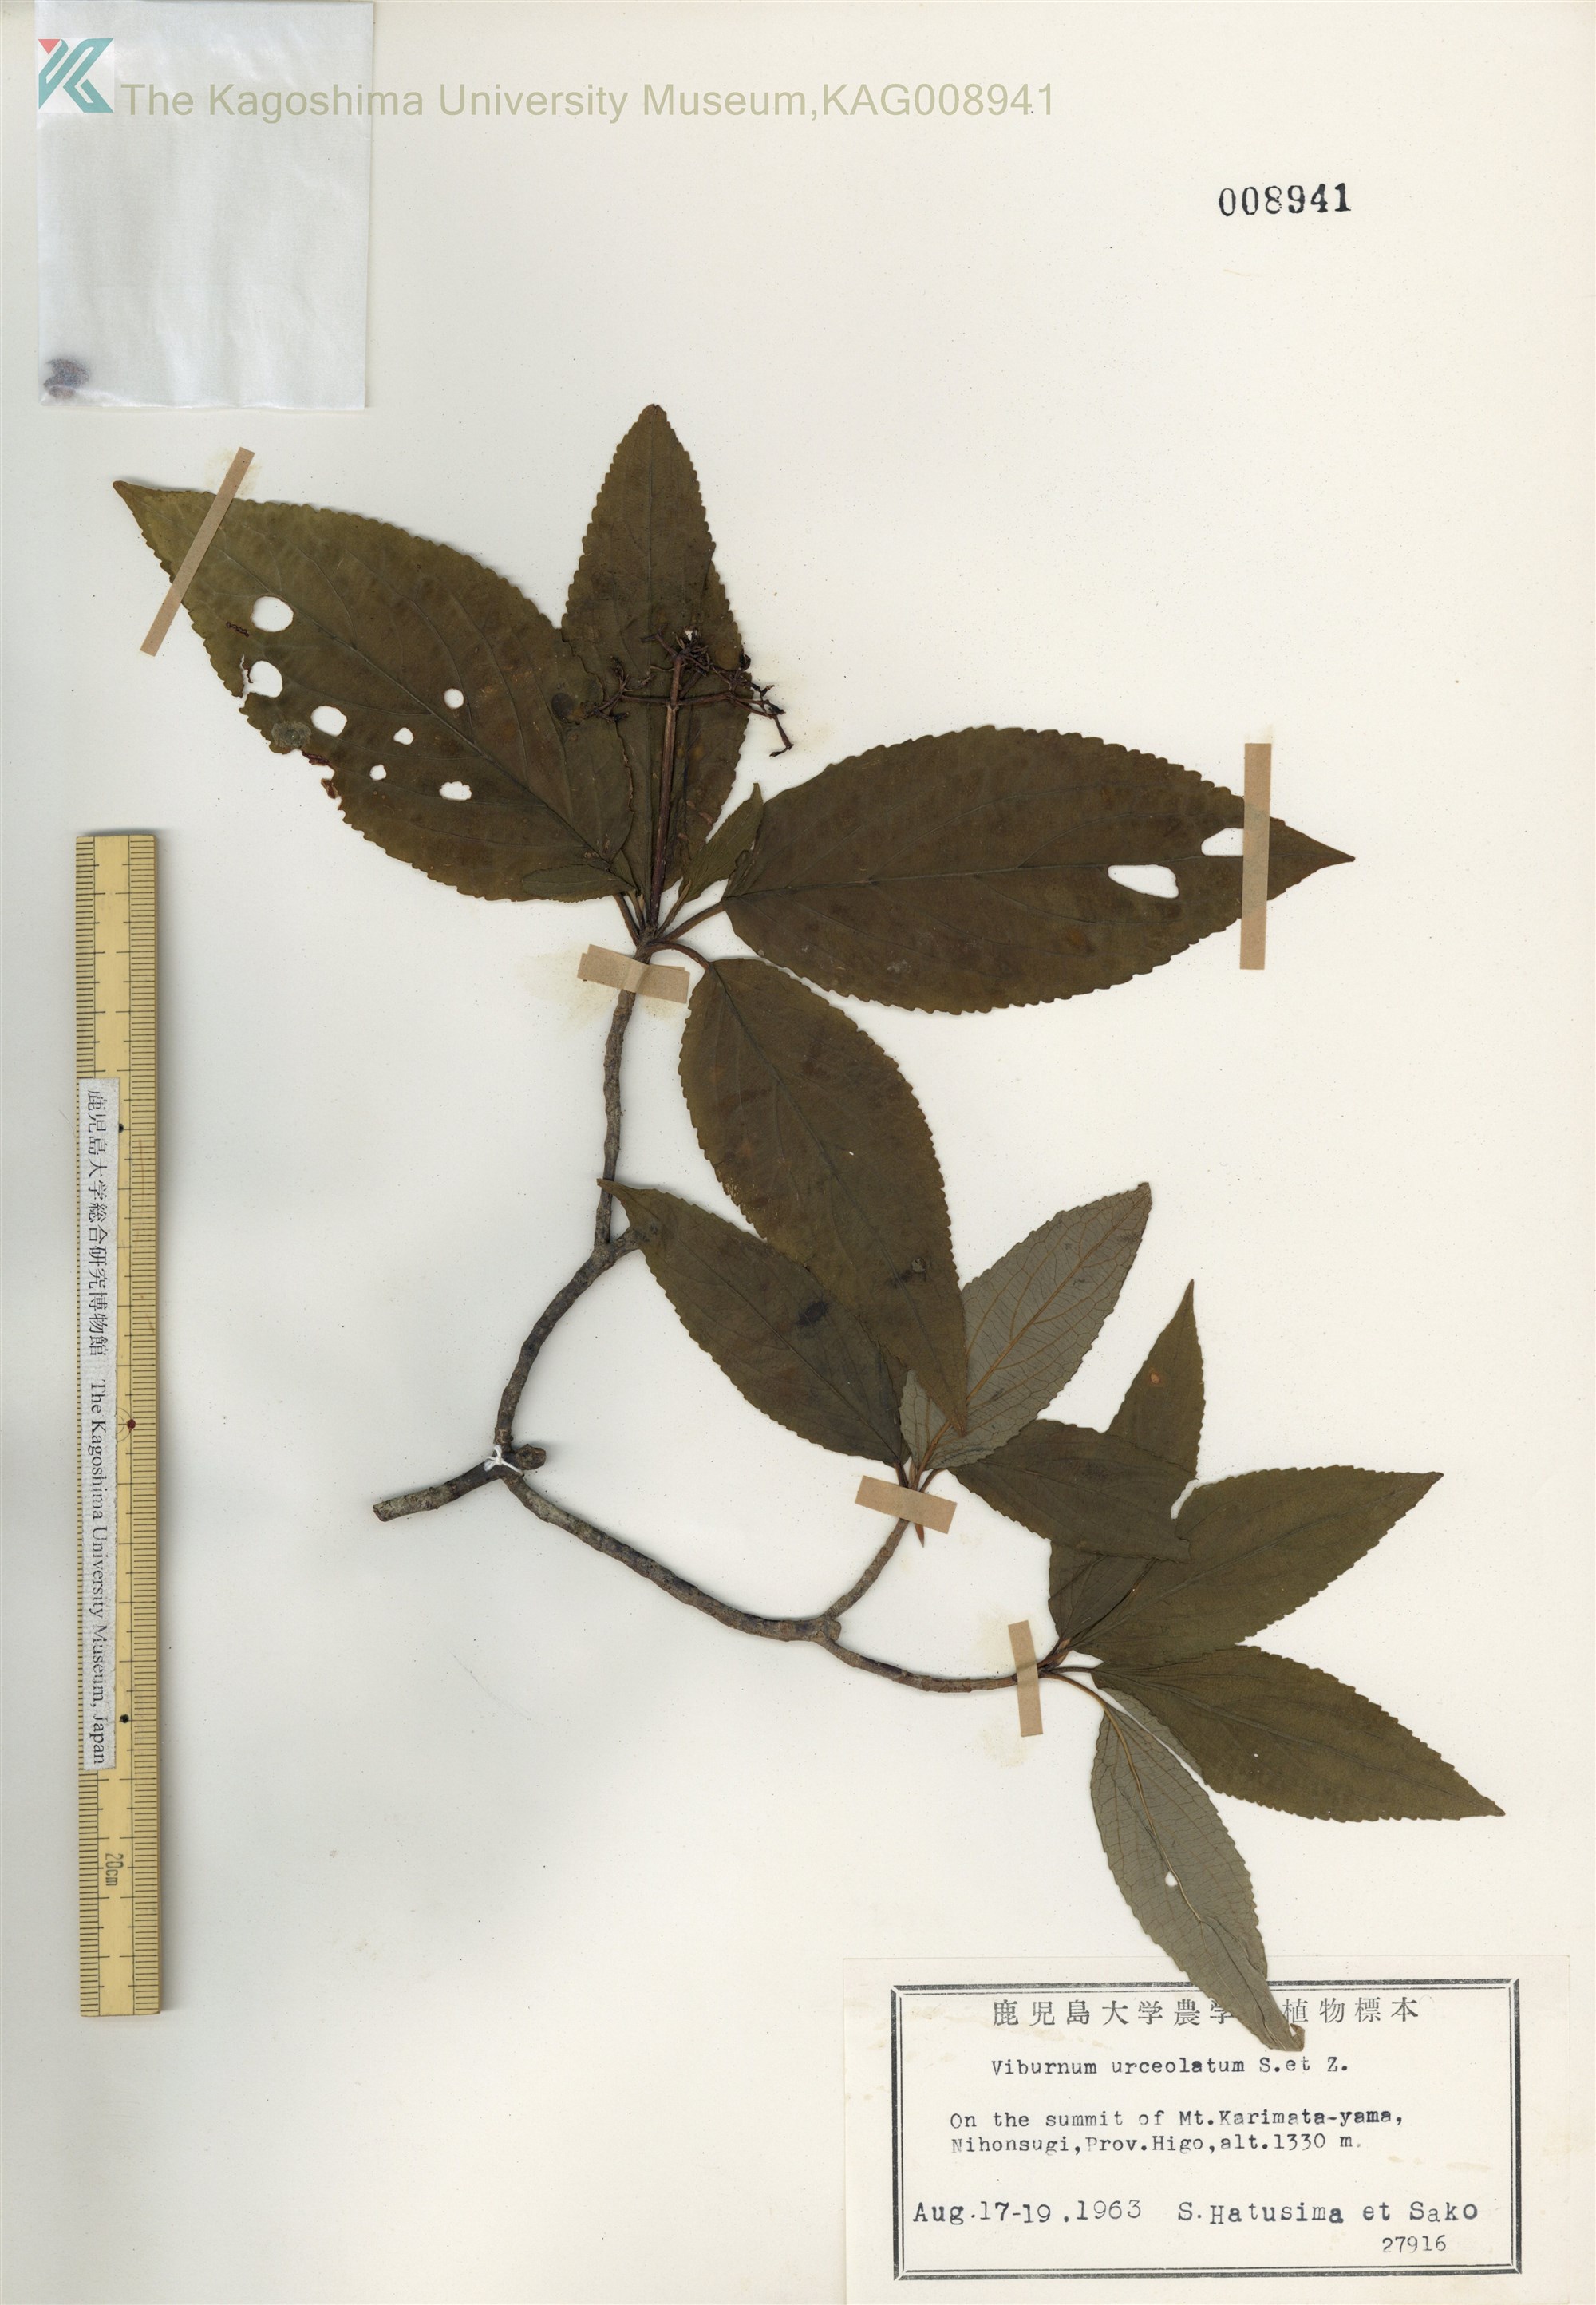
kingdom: Plantae
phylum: Tracheophyta
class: Magnoliopsida
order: Dipsacales
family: Viburnaceae
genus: Viburnum
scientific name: Viburnum urceolatum
